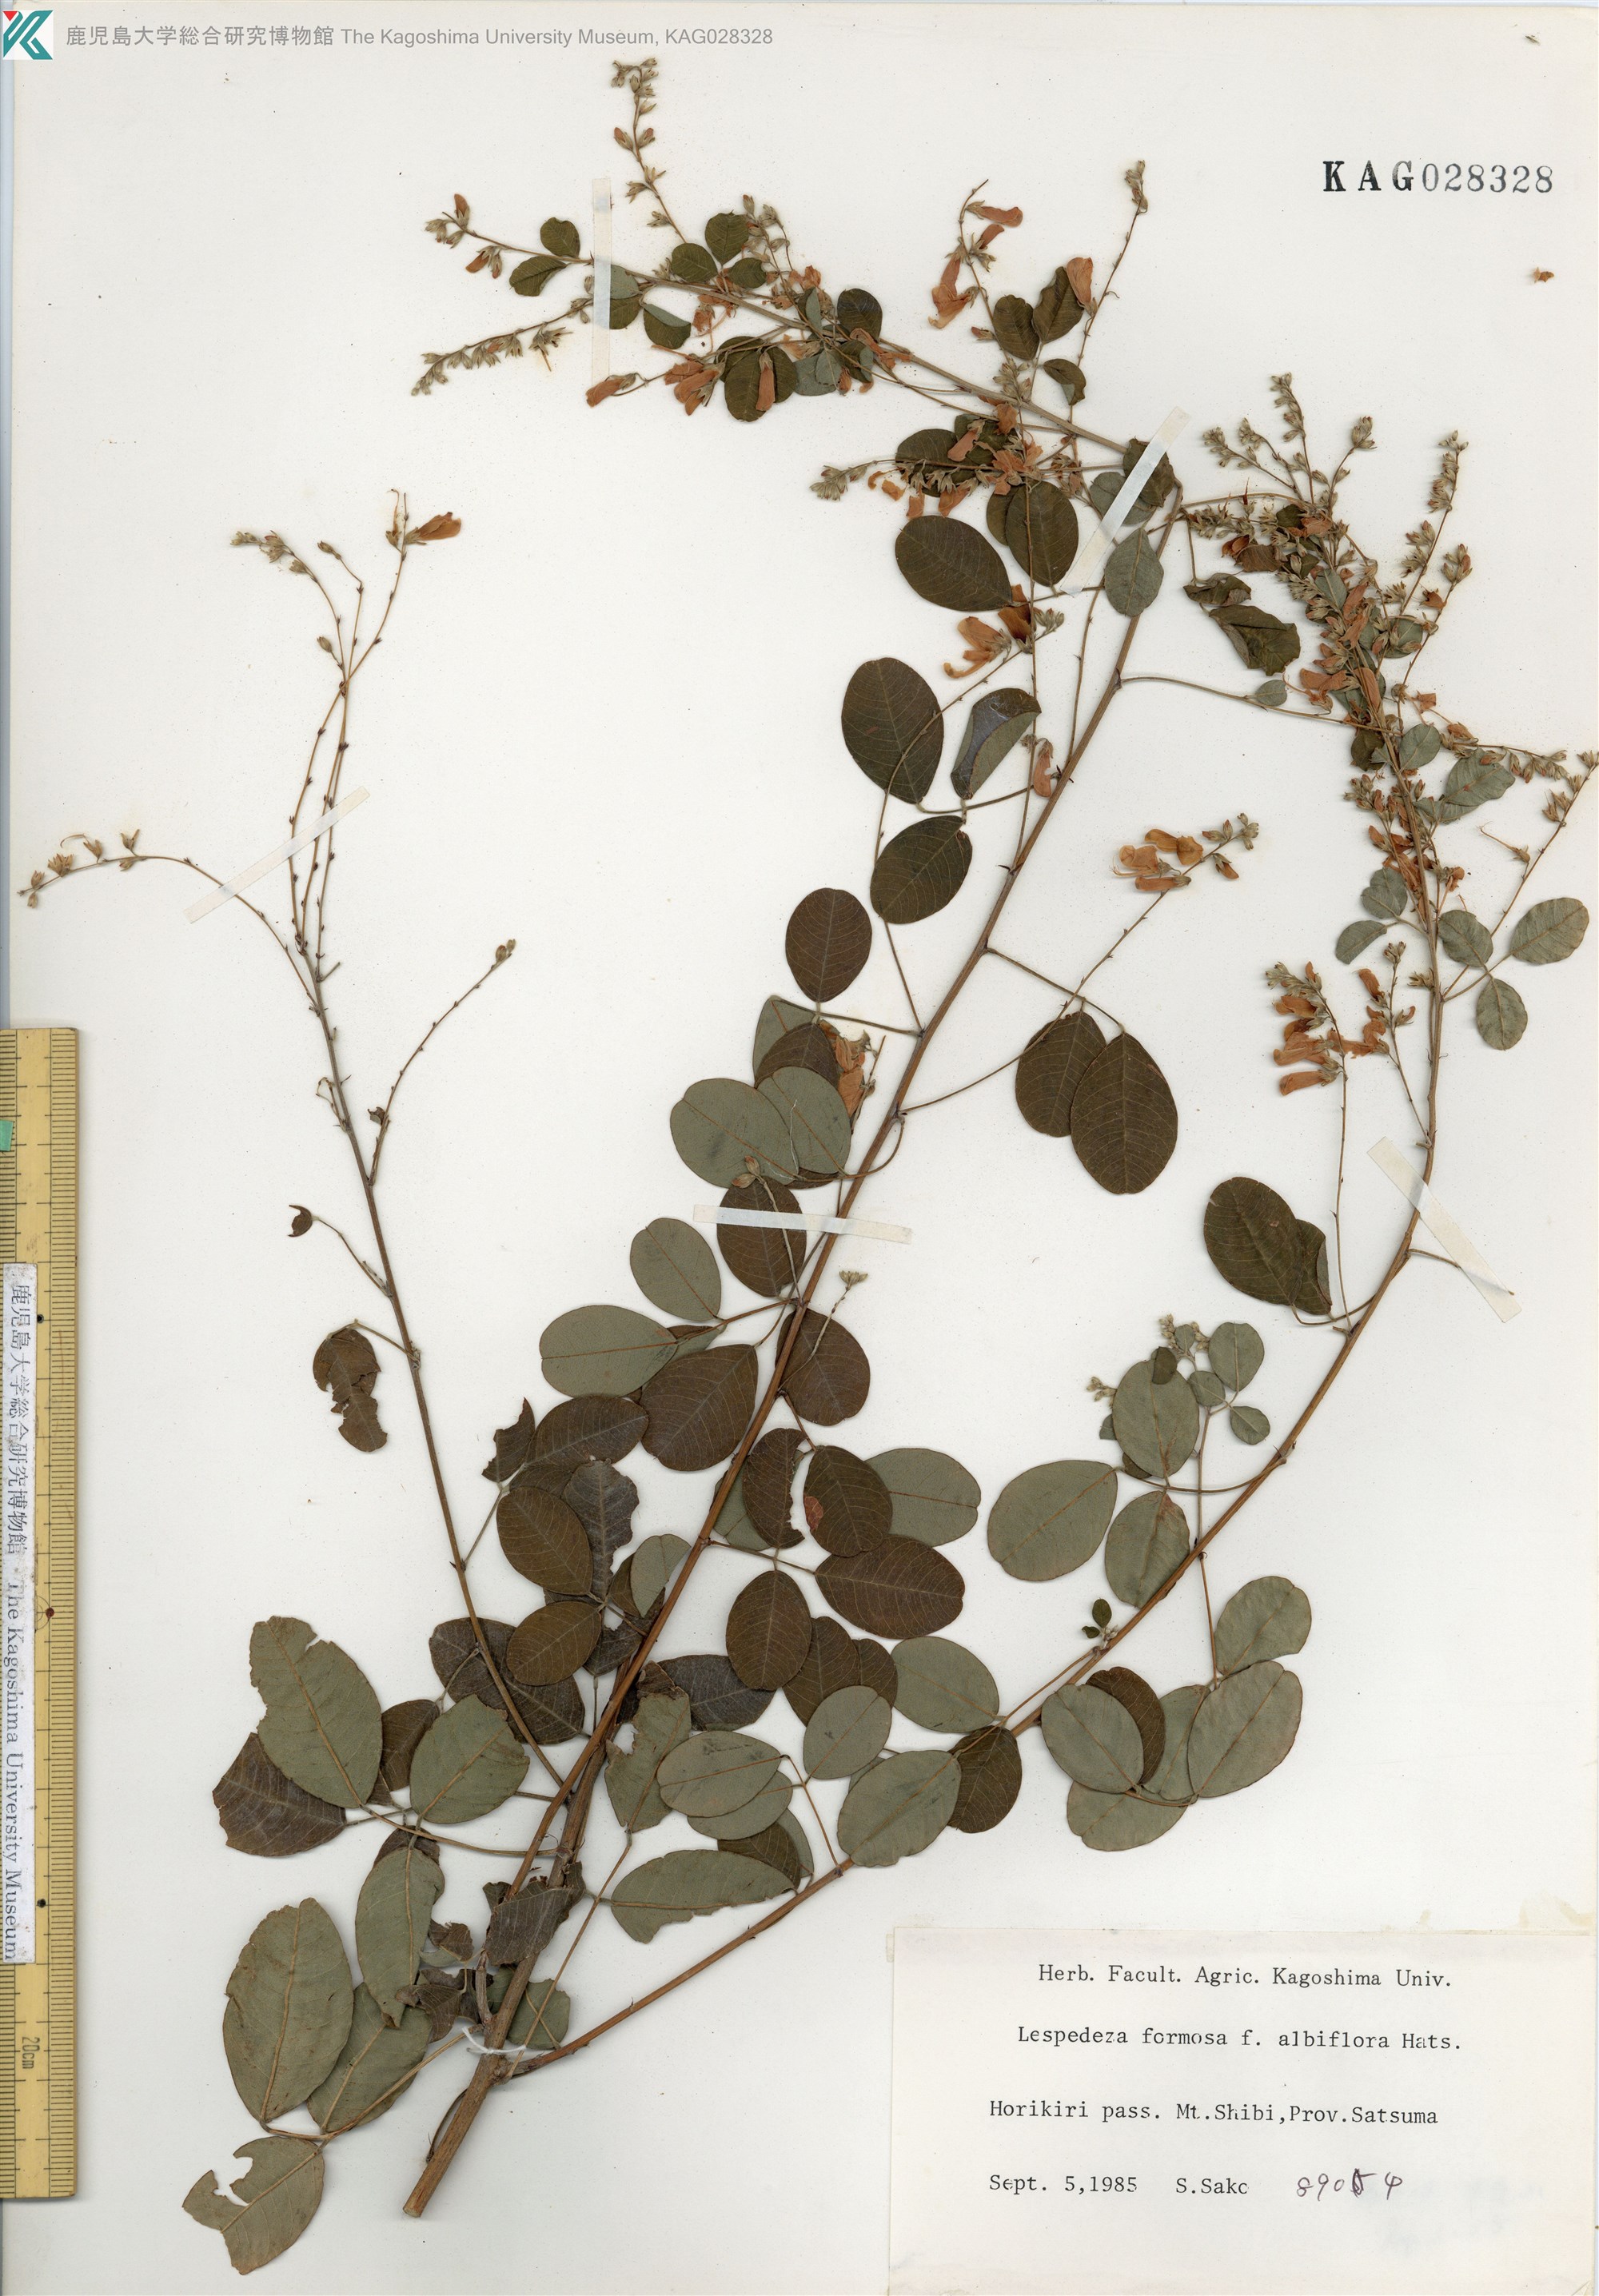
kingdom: Plantae
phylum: Tracheophyta
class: Magnoliopsida
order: Fabales
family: Fabaceae
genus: Lespedeza
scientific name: Lespedeza thunbergii
